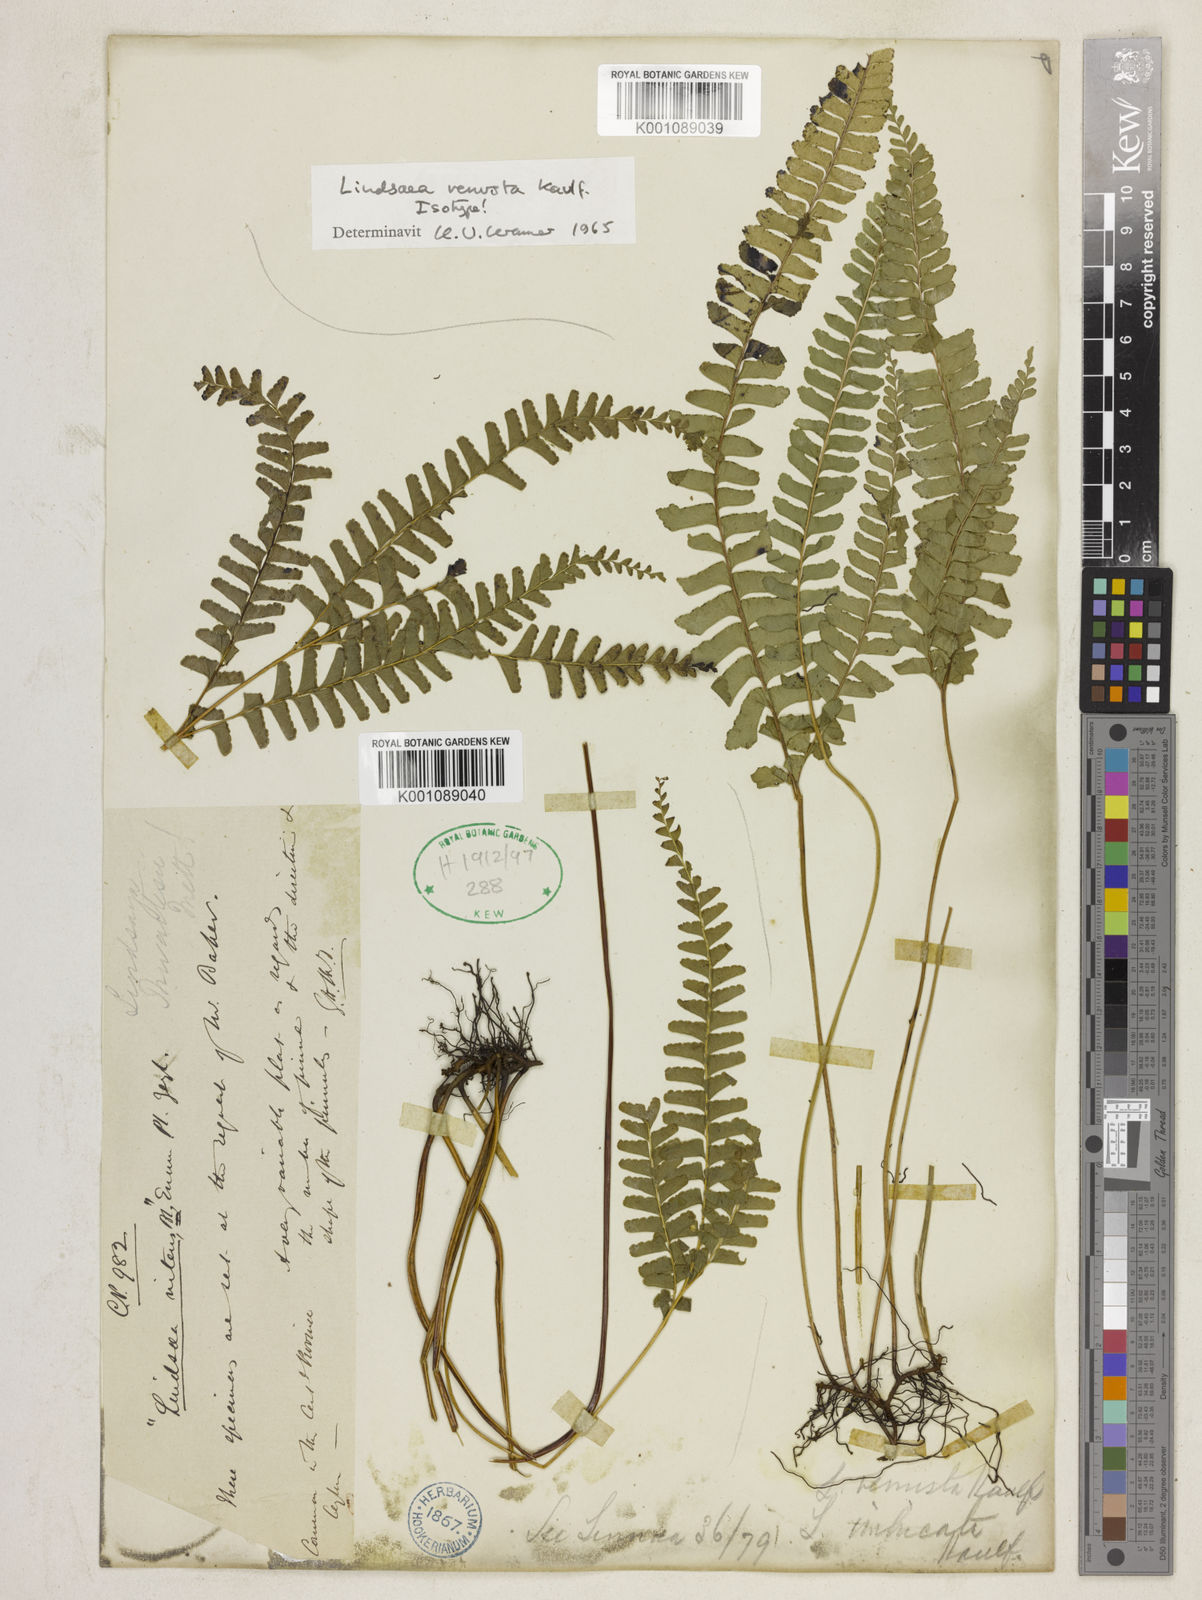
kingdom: Plantae
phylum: Tracheophyta
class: Polypodiopsida
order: Polypodiales
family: Lindsaeaceae
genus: Lindsaea
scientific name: Lindsaea venusta
